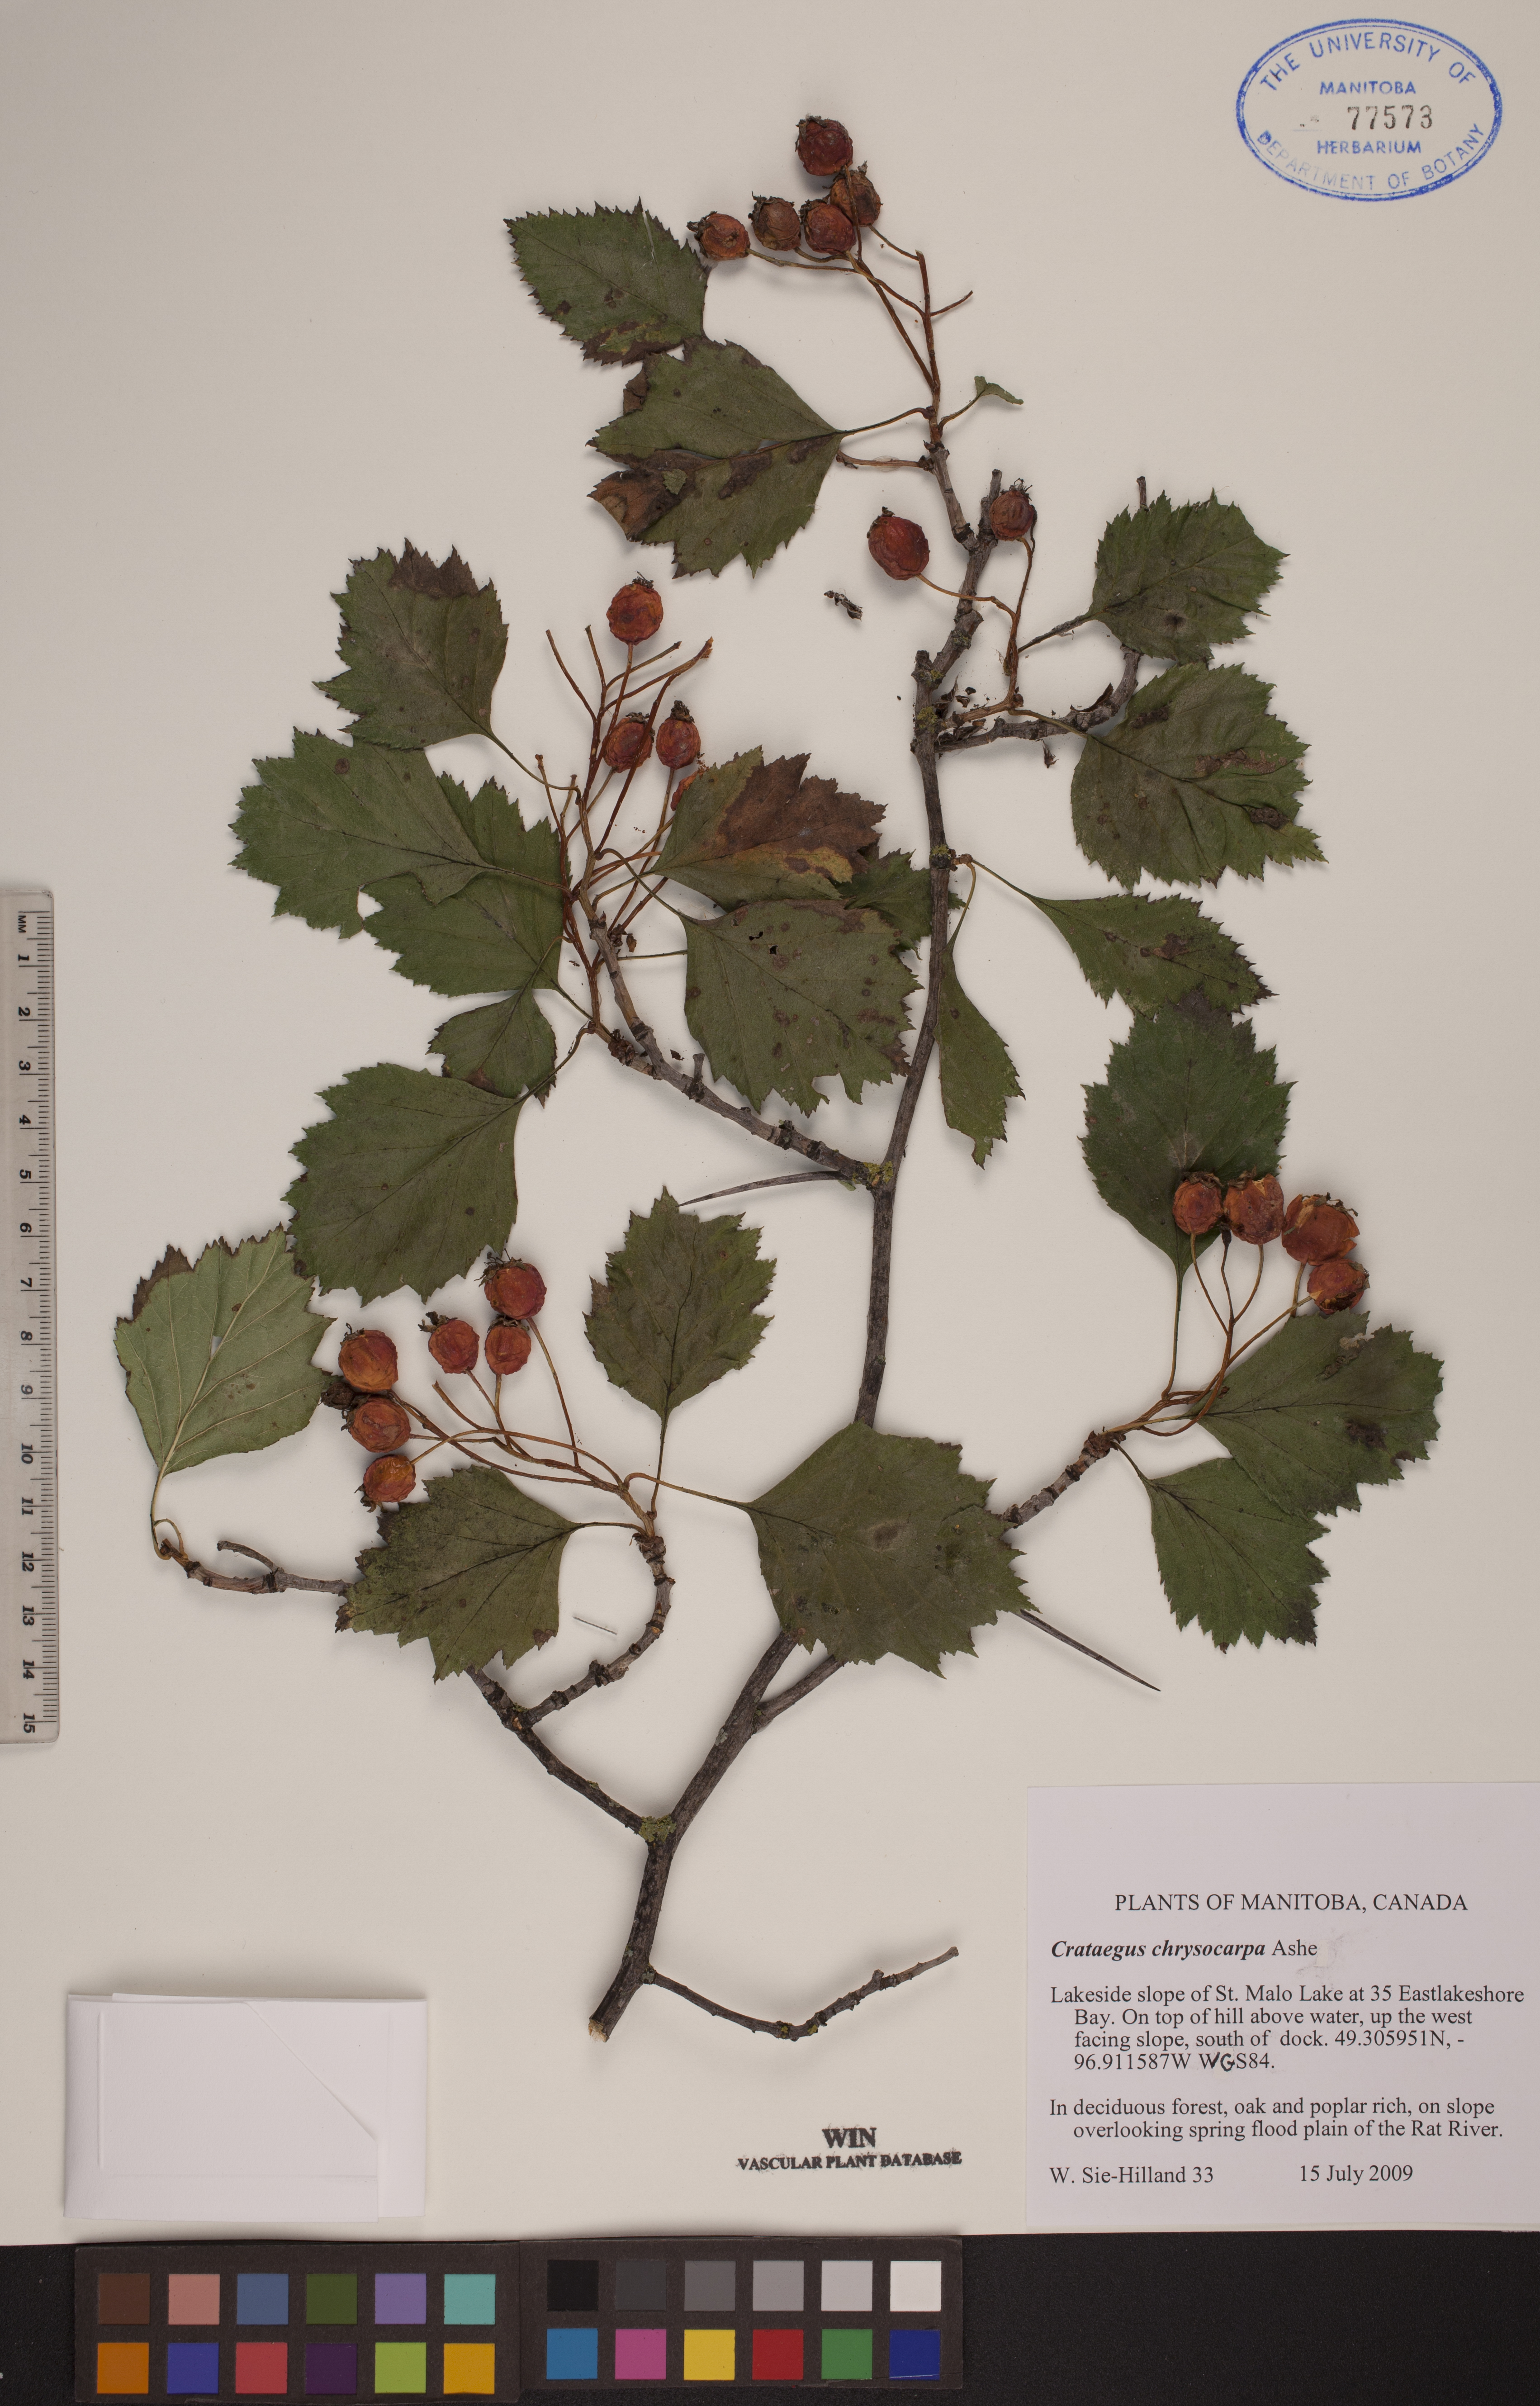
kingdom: Plantae
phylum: Tracheophyta
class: Magnoliopsida
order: Rosales
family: Rosaceae
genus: Crataegus
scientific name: Crataegus chrysocarpa
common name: Fire-berry hawthorn
